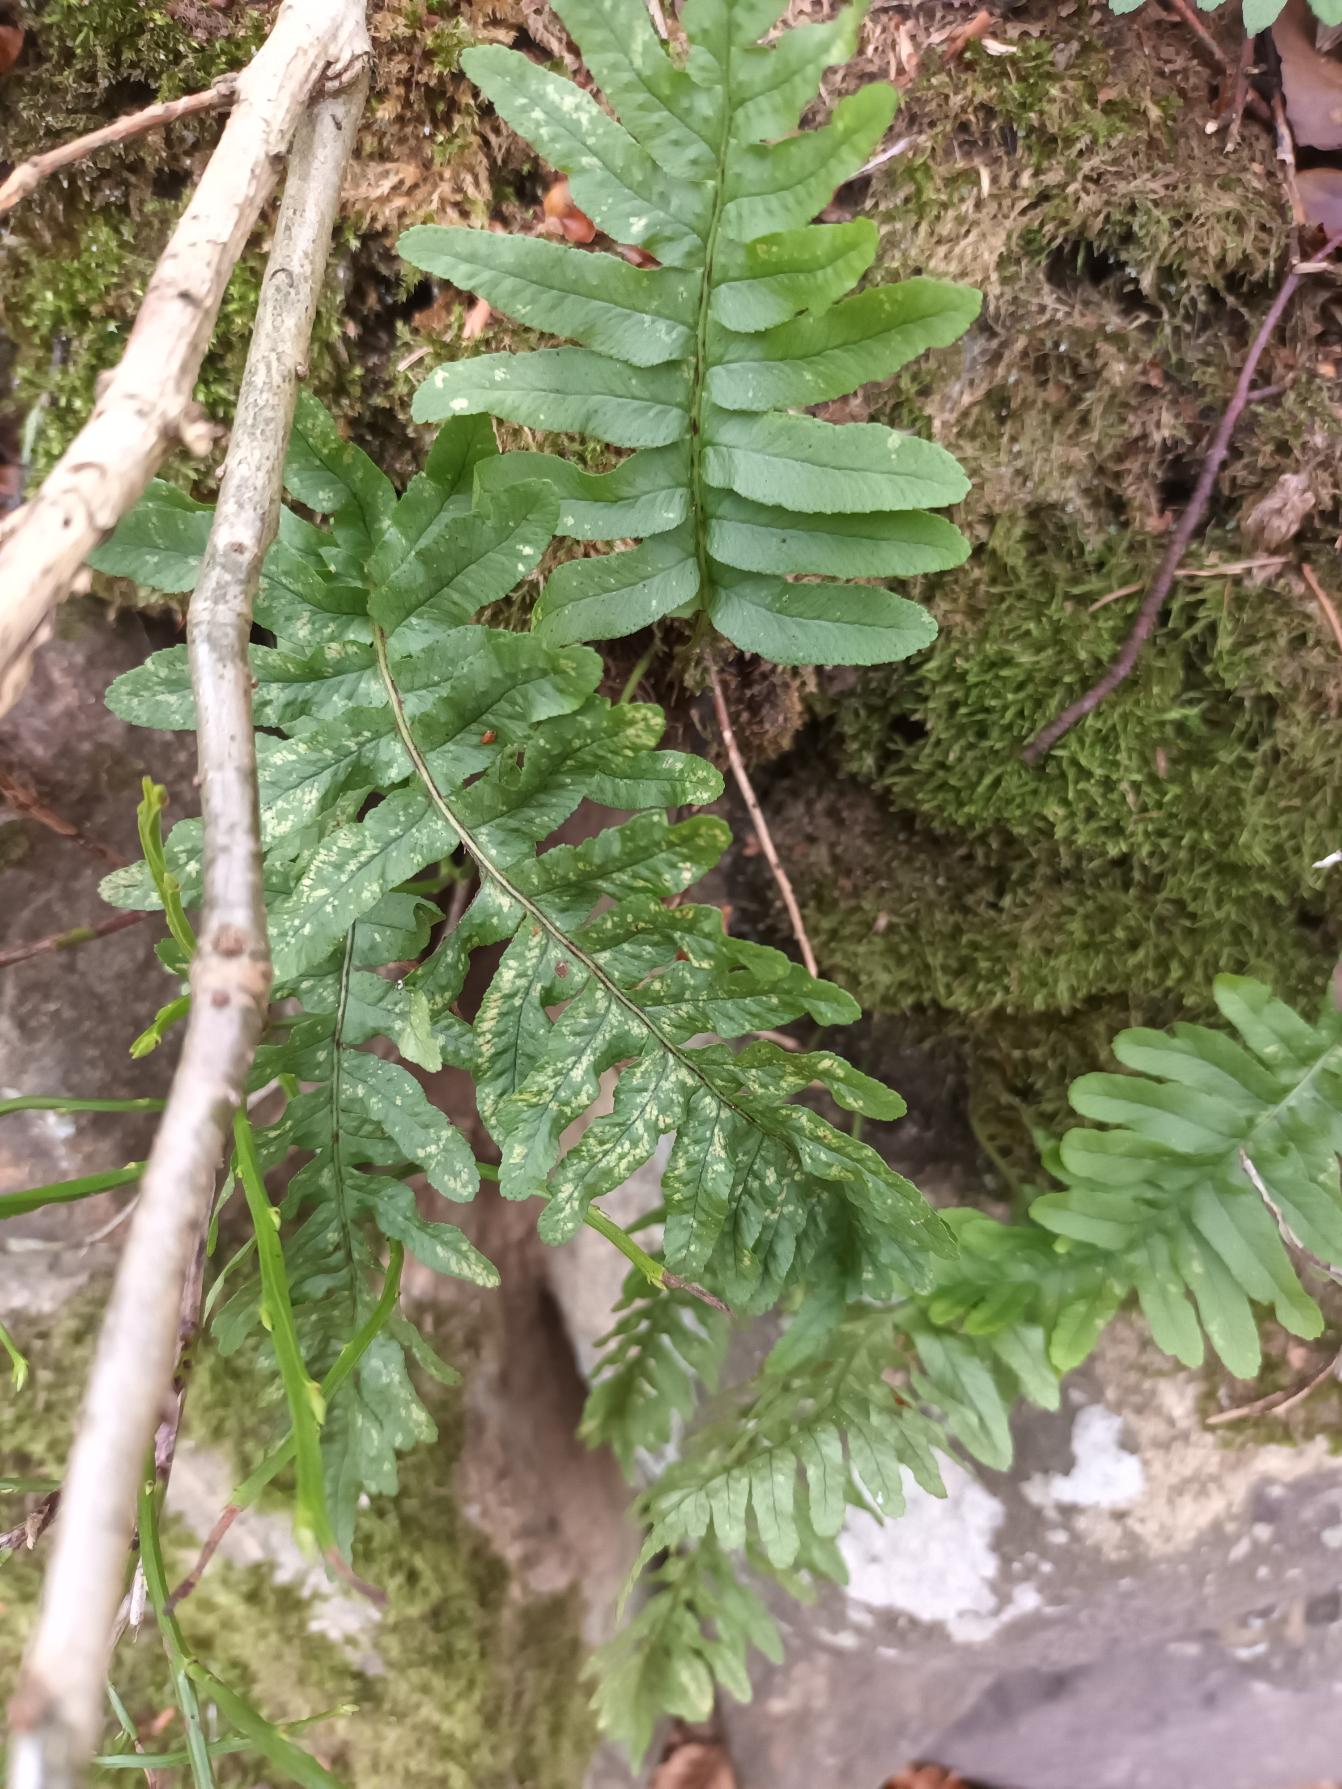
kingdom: Plantae
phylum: Tracheophyta
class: Polypodiopsida
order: Polypodiales
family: Polypodiaceae
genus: Polypodium
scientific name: Polypodium vulgare
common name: Almindelig engelsød
